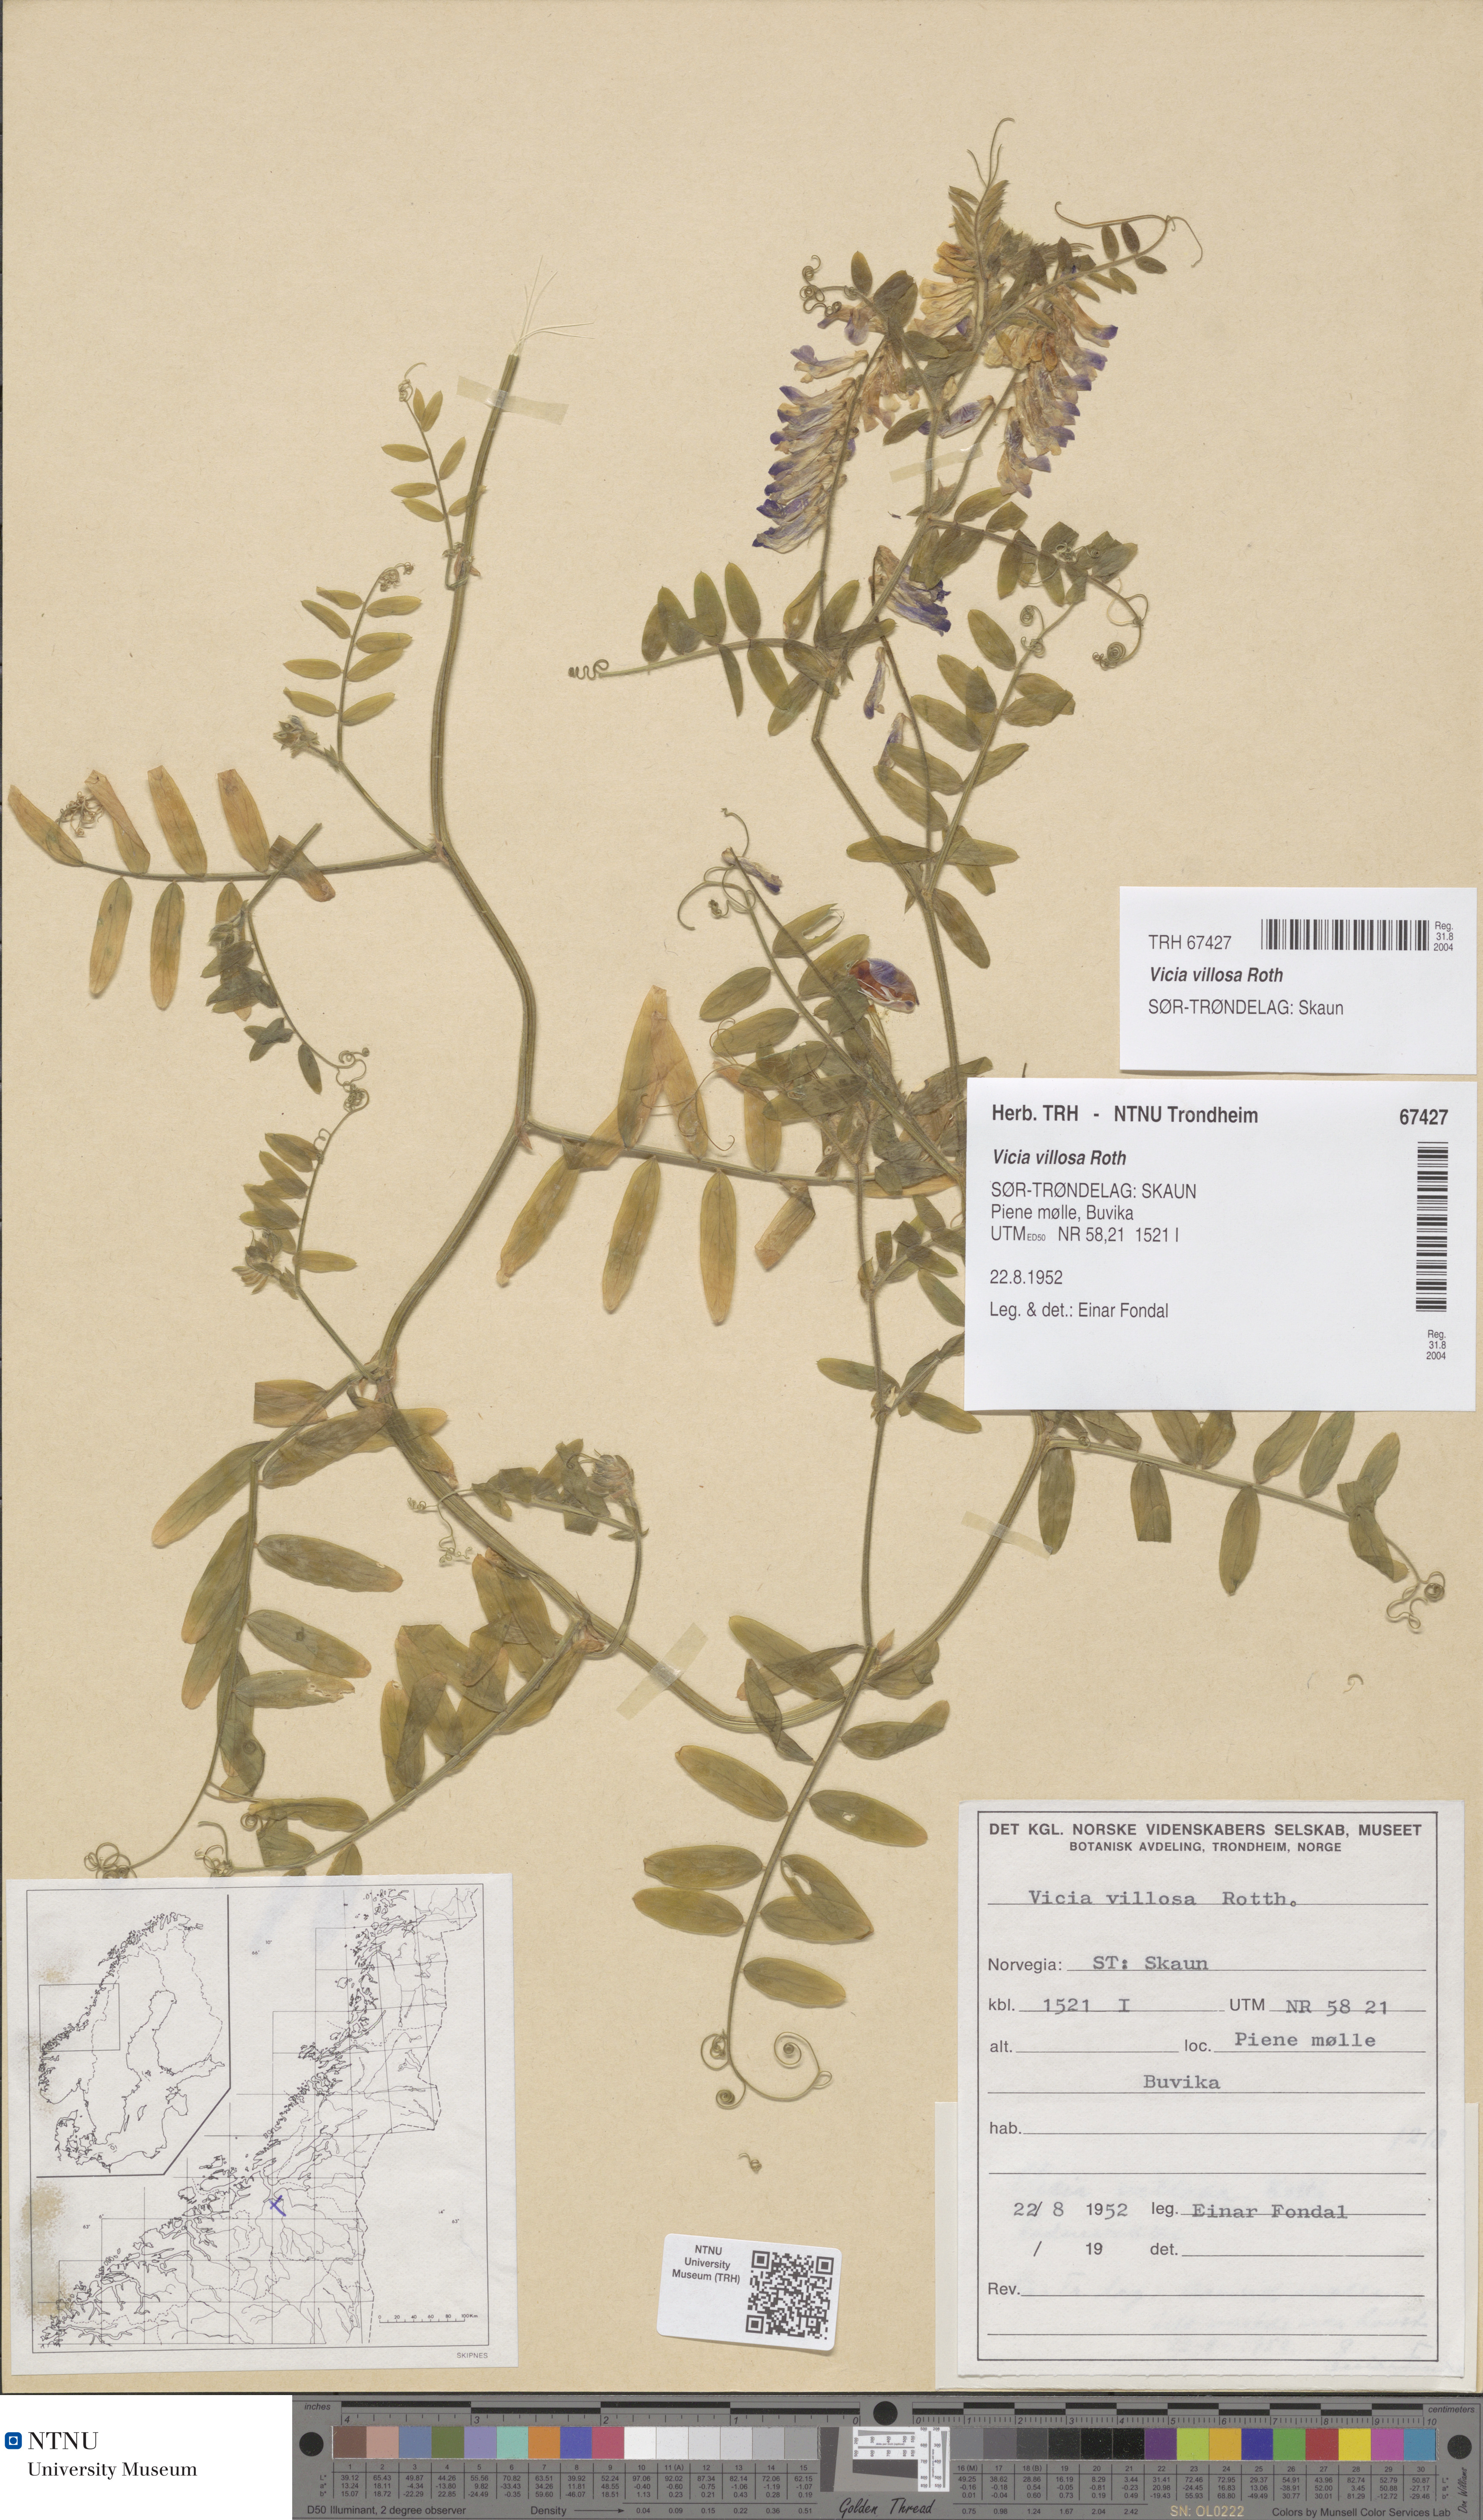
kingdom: Plantae
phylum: Tracheophyta
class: Magnoliopsida
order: Fabales
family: Fabaceae
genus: Vicia
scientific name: Vicia villosa
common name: Fodder vetch
